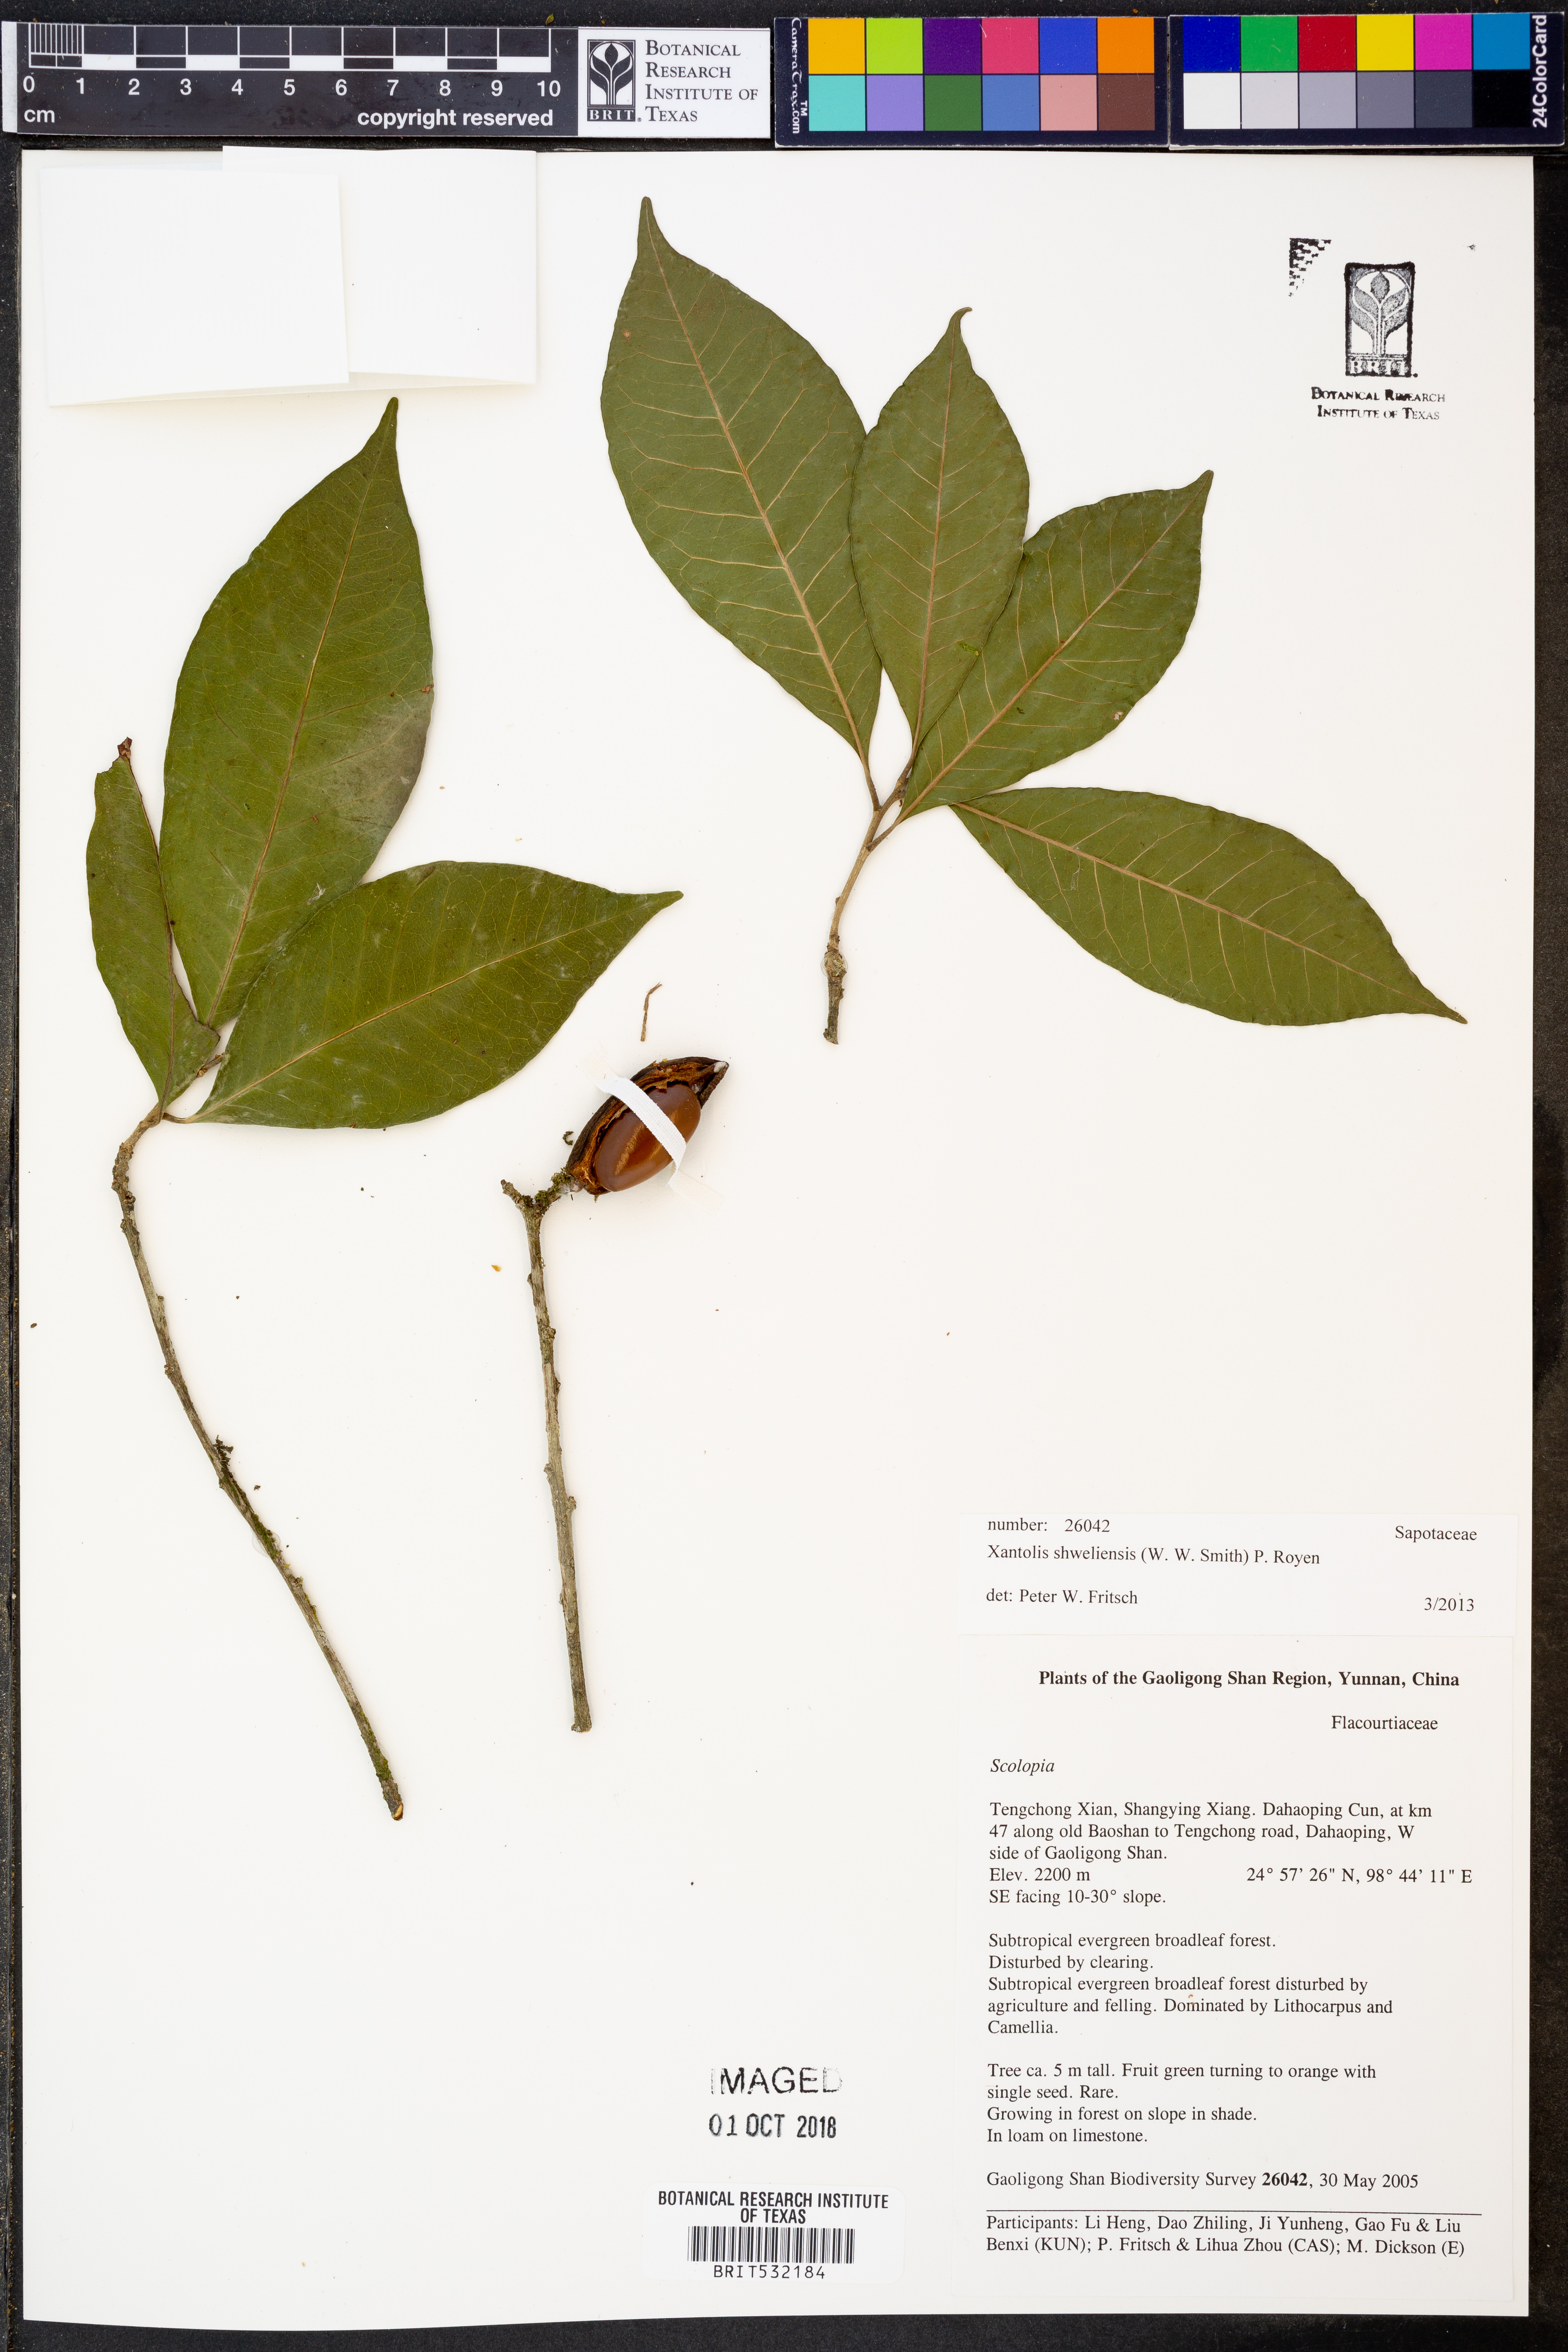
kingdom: Plantae
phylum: Tracheophyta
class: Magnoliopsida
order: Ericales
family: Sapotaceae
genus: Xantolis
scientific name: Xantolis shweliensis
